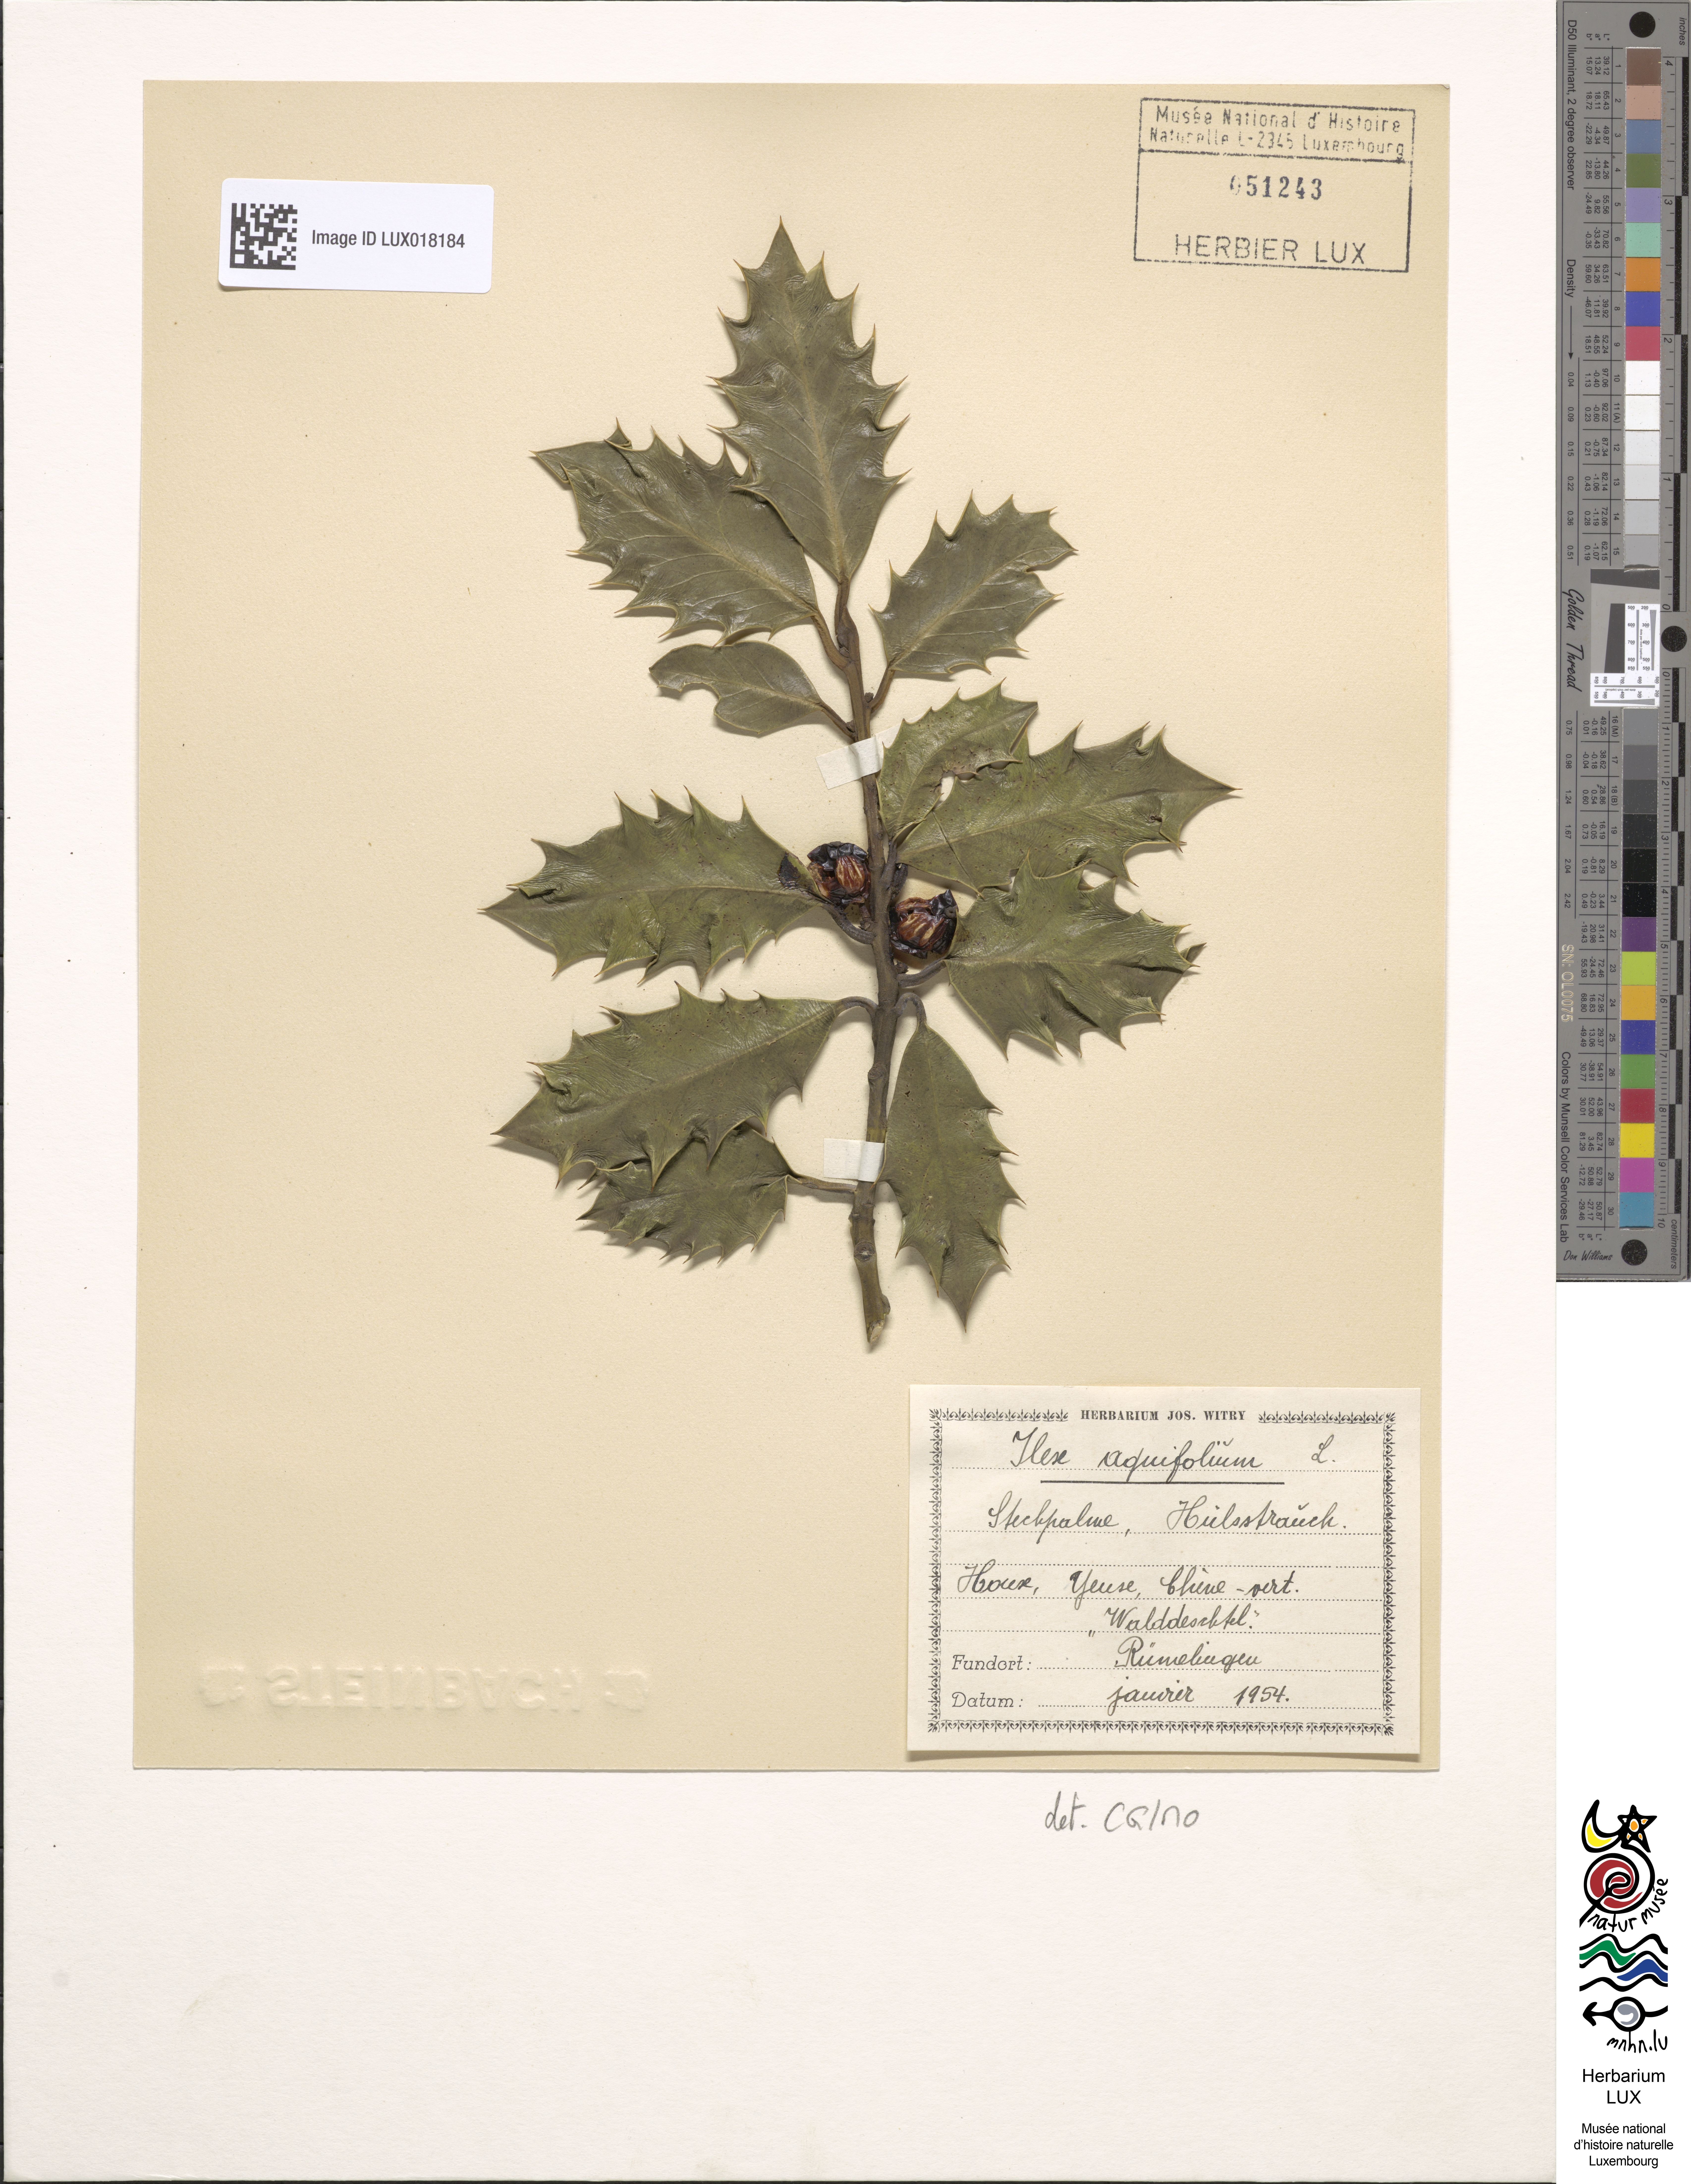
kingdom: Plantae
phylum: Tracheophyta
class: Magnoliopsida
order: Aquifoliales
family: Aquifoliaceae
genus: Ilex
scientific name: Ilex aquifolium
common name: English holly
